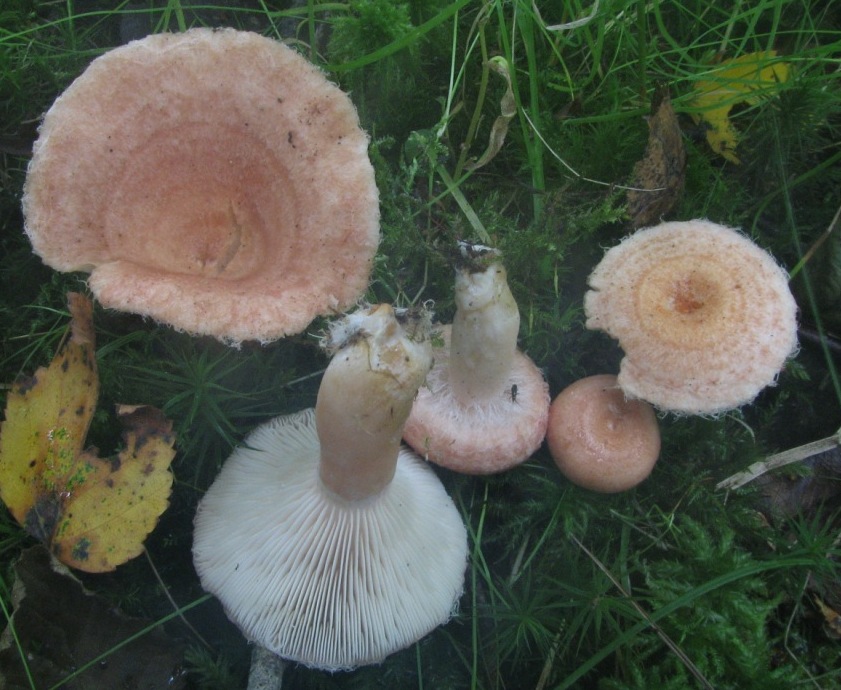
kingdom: Fungi
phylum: Basidiomycota
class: Agaricomycetes
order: Russulales
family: Russulaceae
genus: Lactarius
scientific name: Lactarius torminosus
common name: skægget mælkehat
